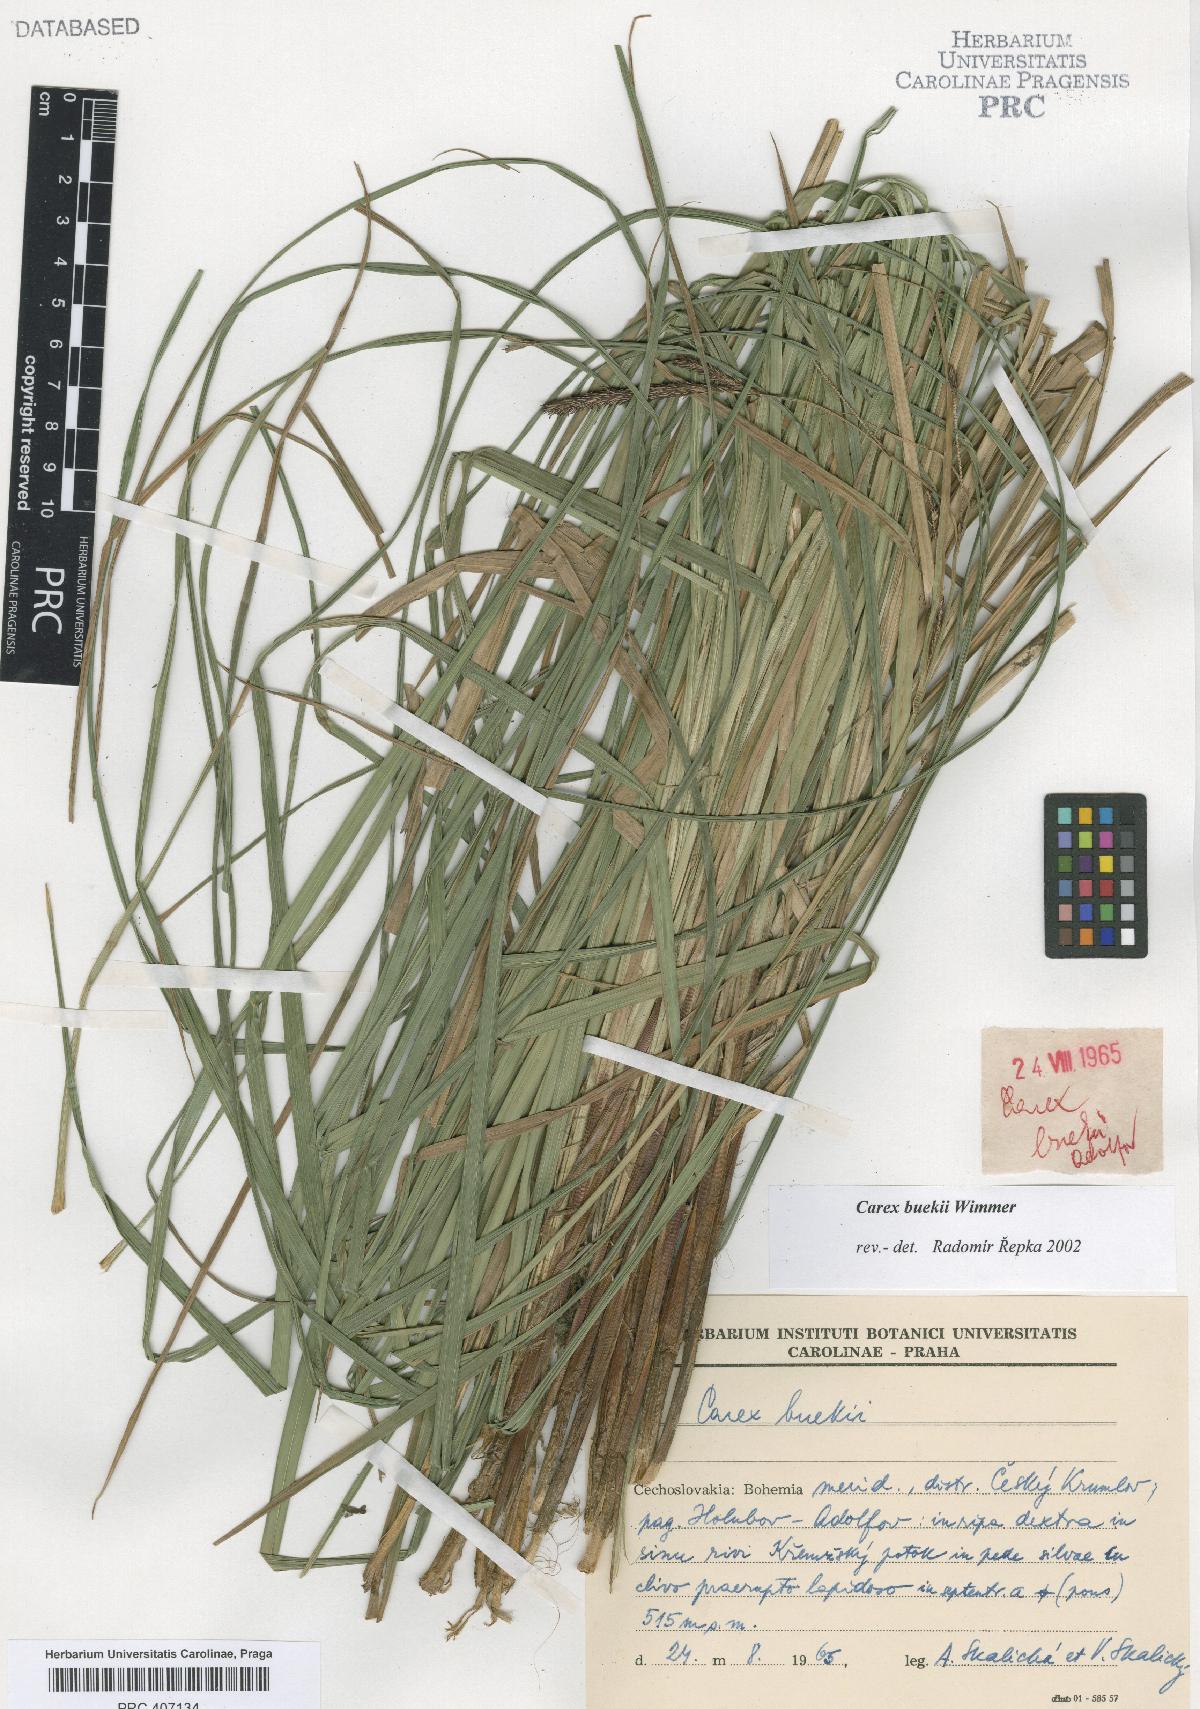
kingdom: Plantae
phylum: Tracheophyta
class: Liliopsida
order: Poales
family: Cyperaceae
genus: Carex
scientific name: Carex buekii
